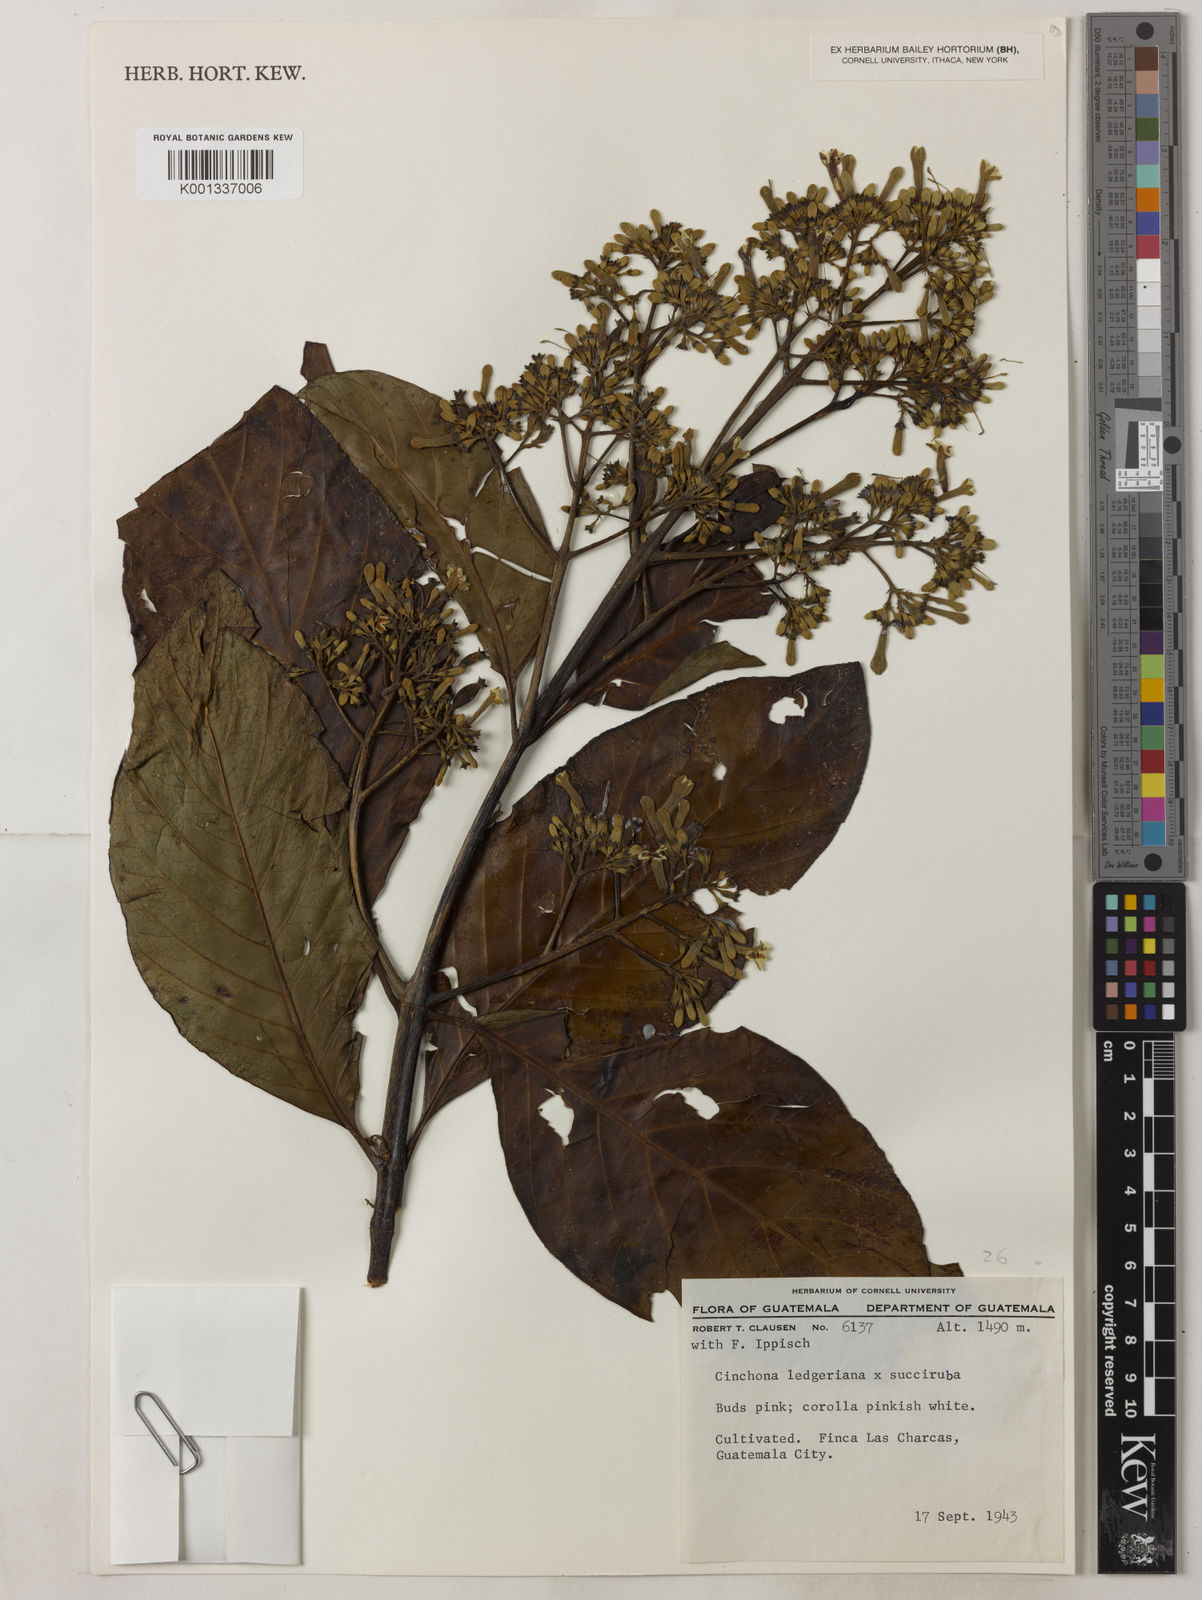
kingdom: Plantae
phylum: Tracheophyta
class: Magnoliopsida
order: Gentianales
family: Rubiaceae
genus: Cinchona
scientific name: Cinchona pubescens
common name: Quinine
